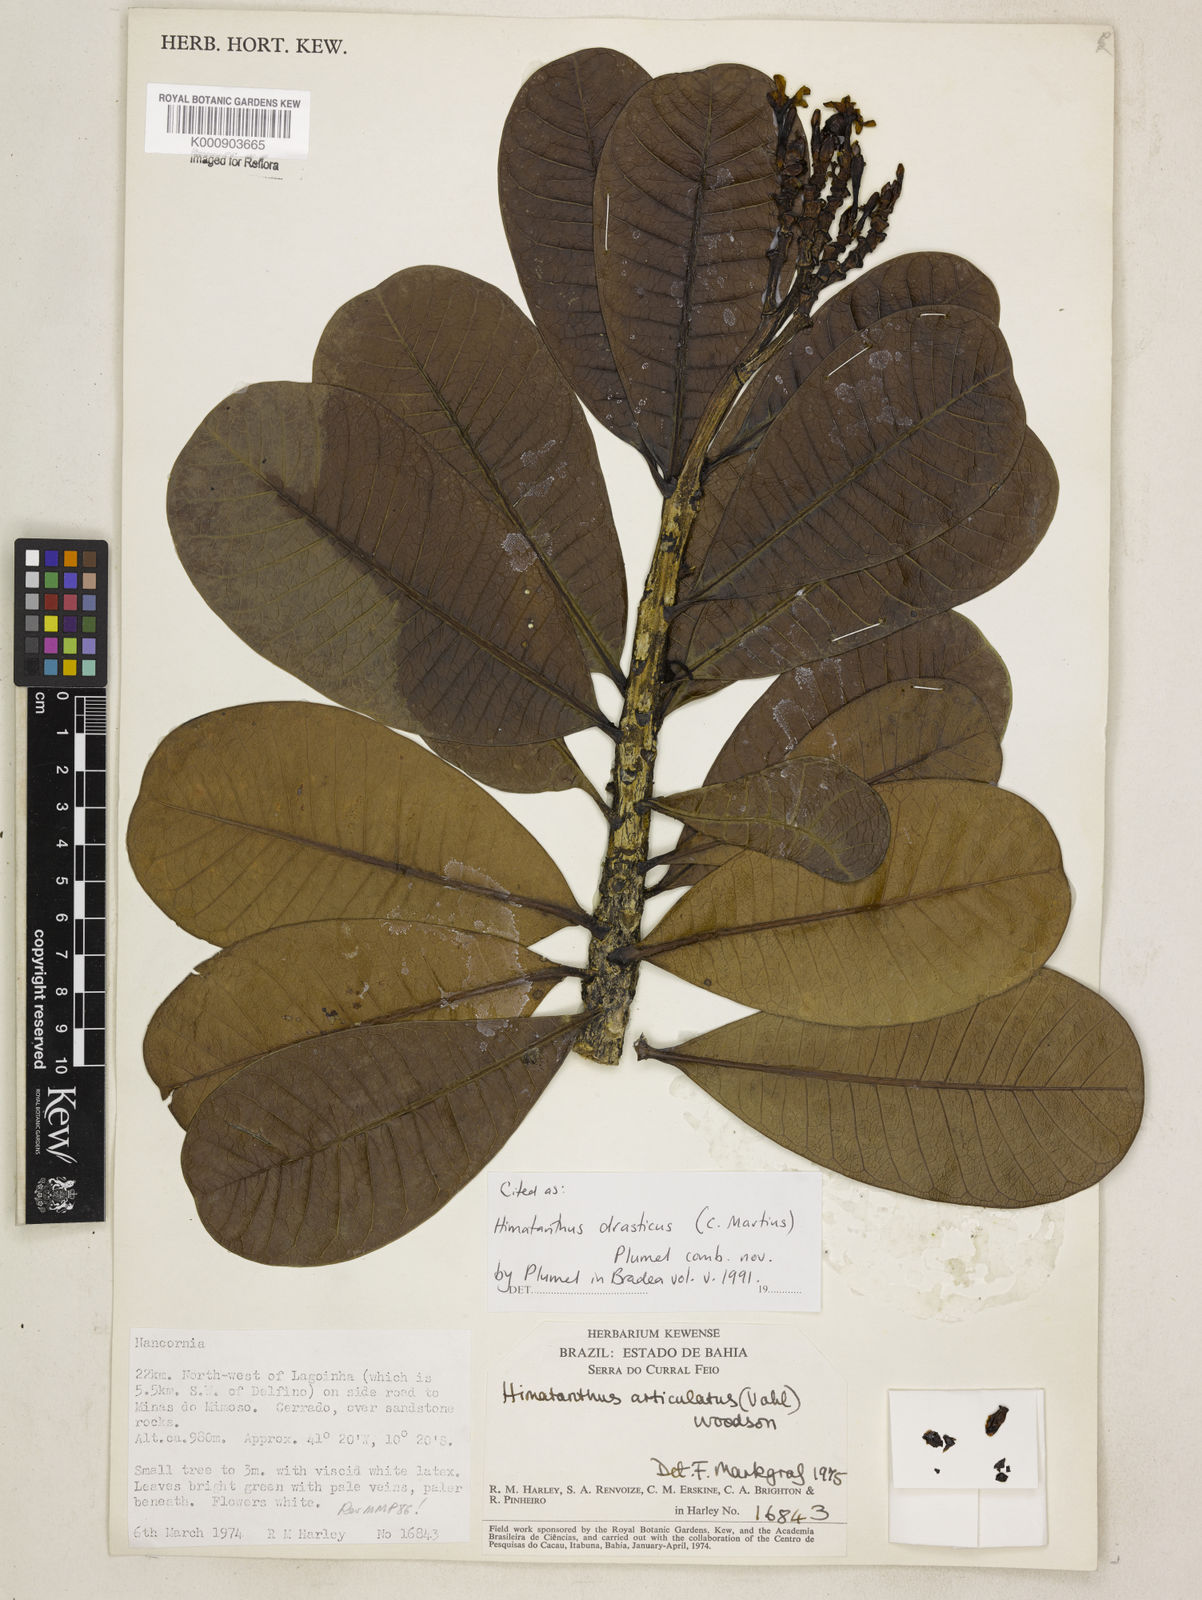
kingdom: Plantae
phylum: Tracheophyta
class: Magnoliopsida
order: Gentianales
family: Apocynaceae
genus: Himatanthus
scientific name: Himatanthus drasticus
